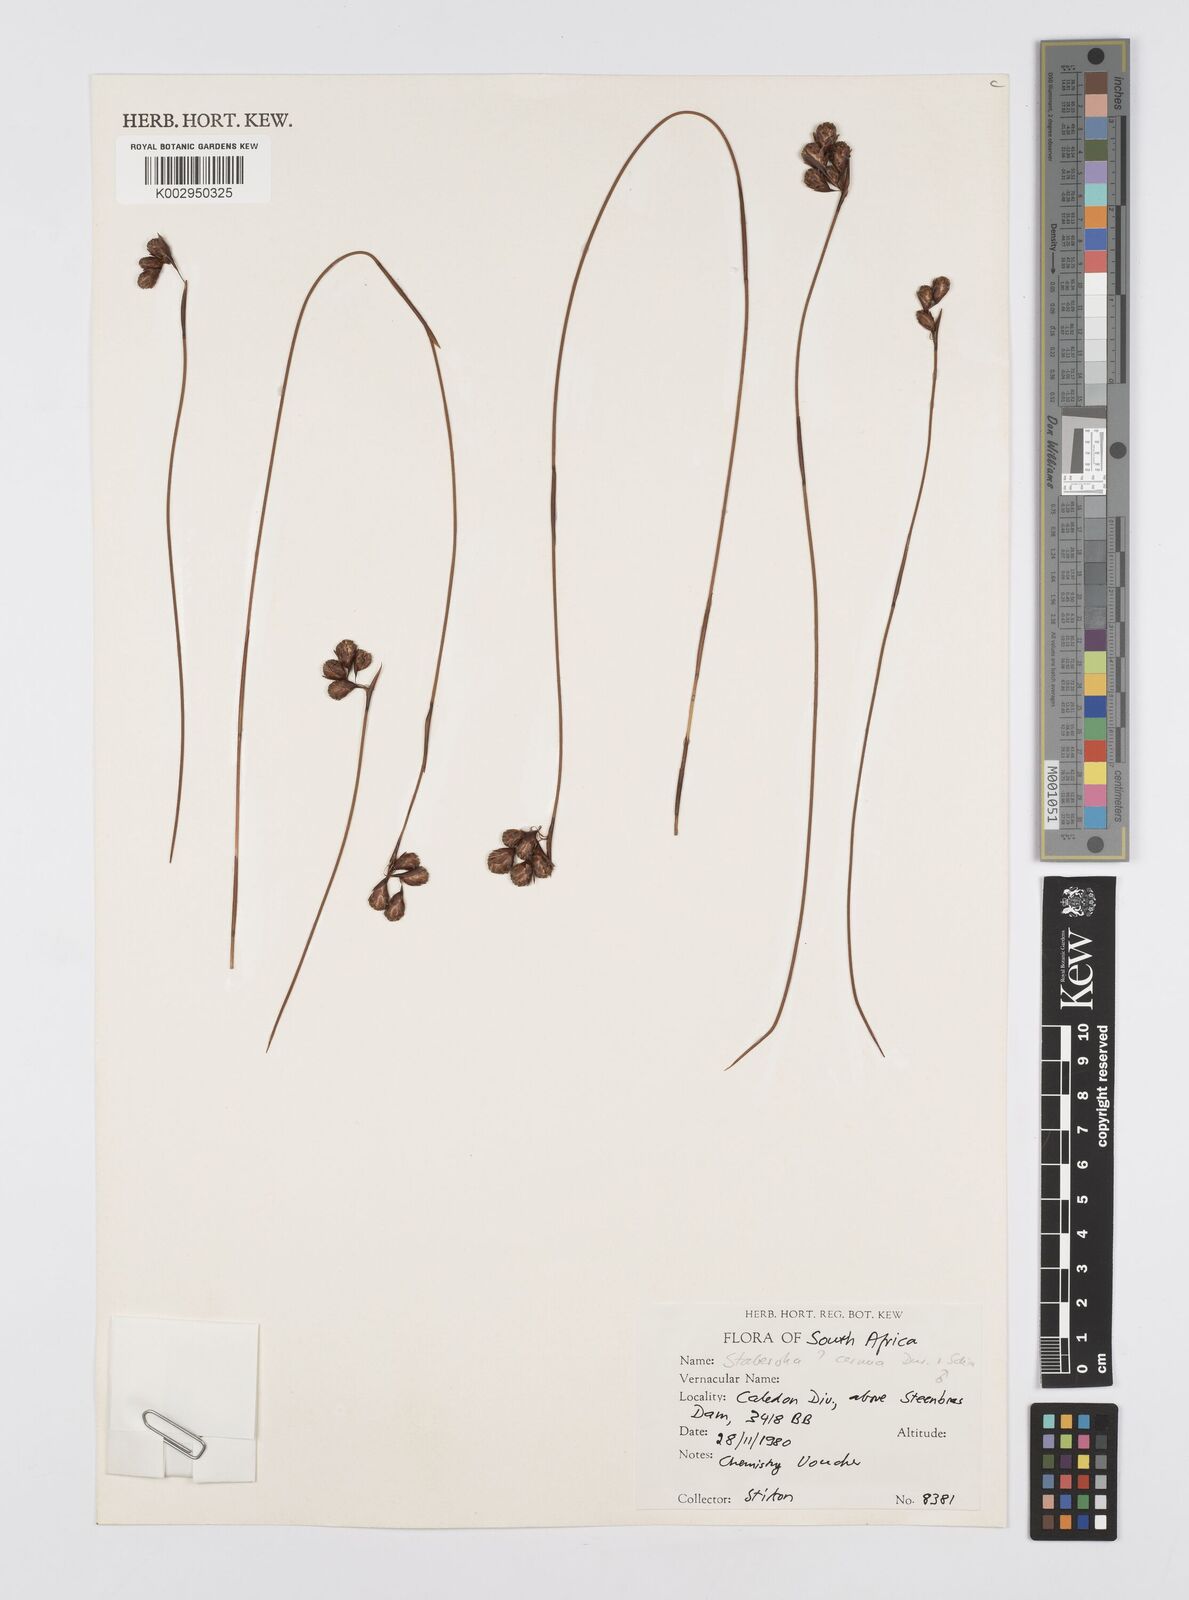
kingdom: Plantae
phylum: Tracheophyta
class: Liliopsida
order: Poales
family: Restionaceae
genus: Staberoha
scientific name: Staberoha cernua
